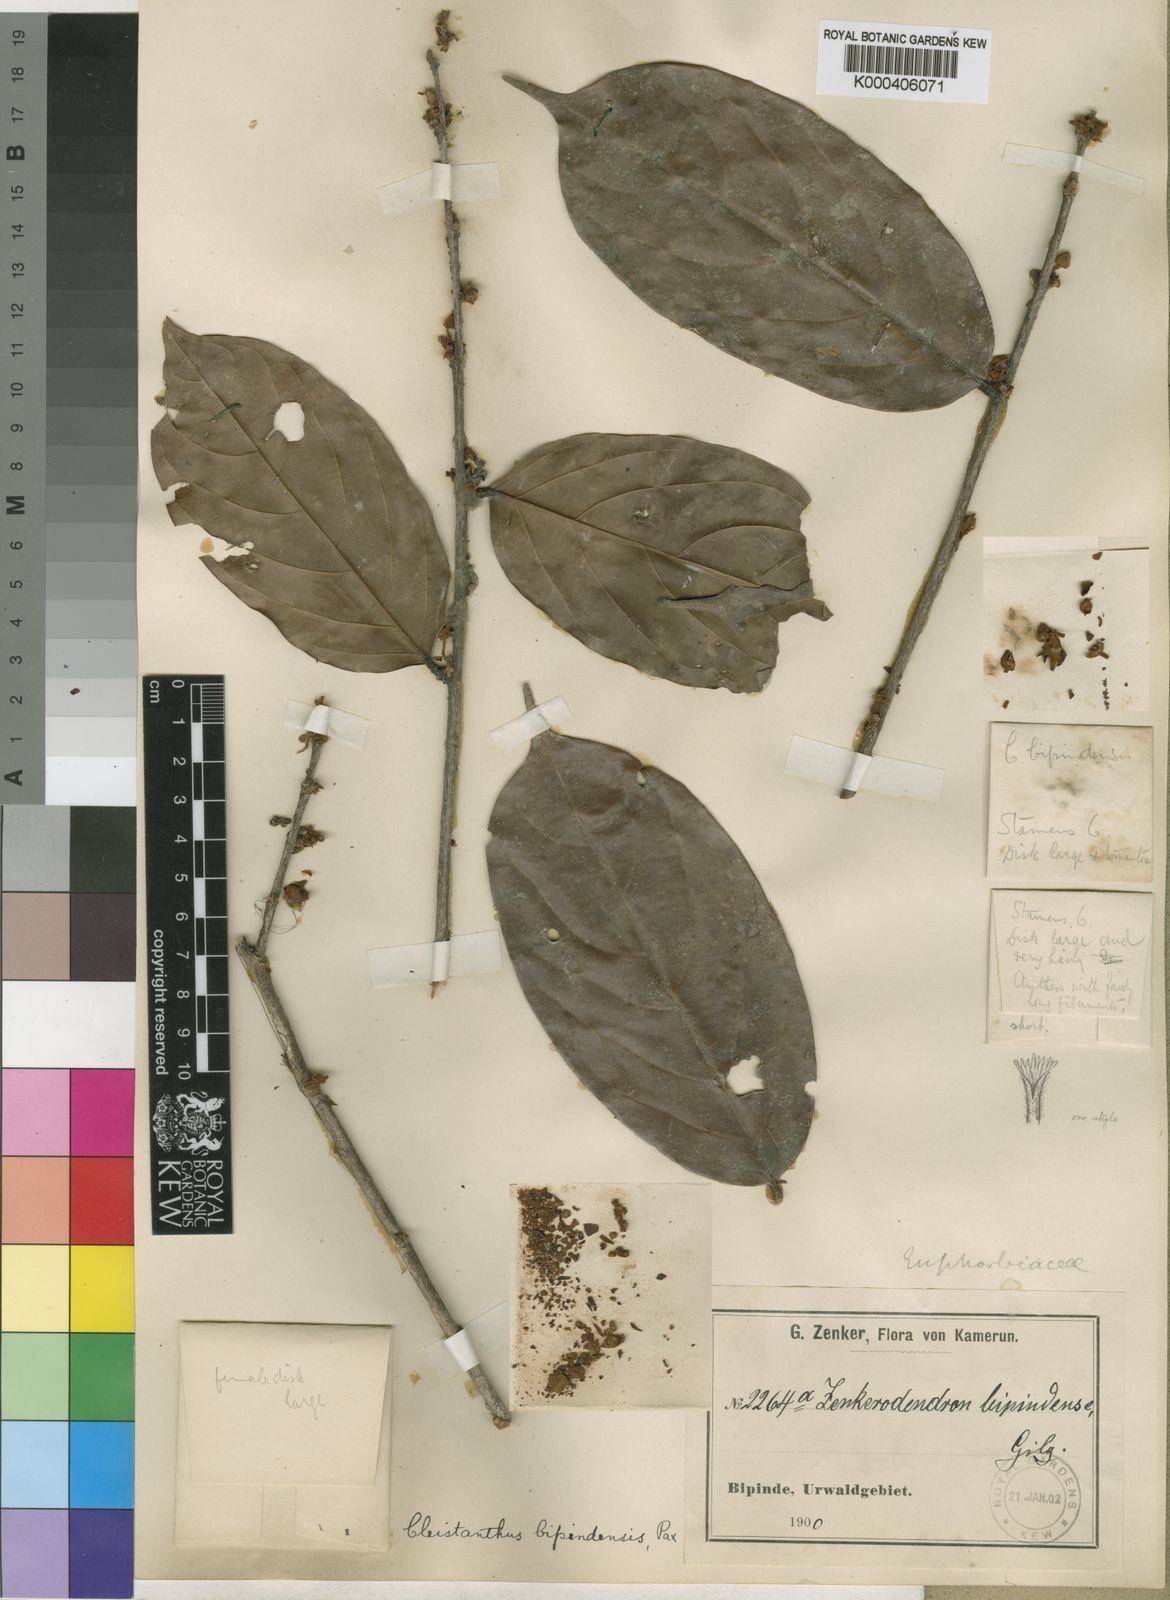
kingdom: Plantae
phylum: Tracheophyta
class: Magnoliopsida
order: Malpighiales
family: Phyllanthaceae
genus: Cleistanthus
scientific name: Cleistanthus
